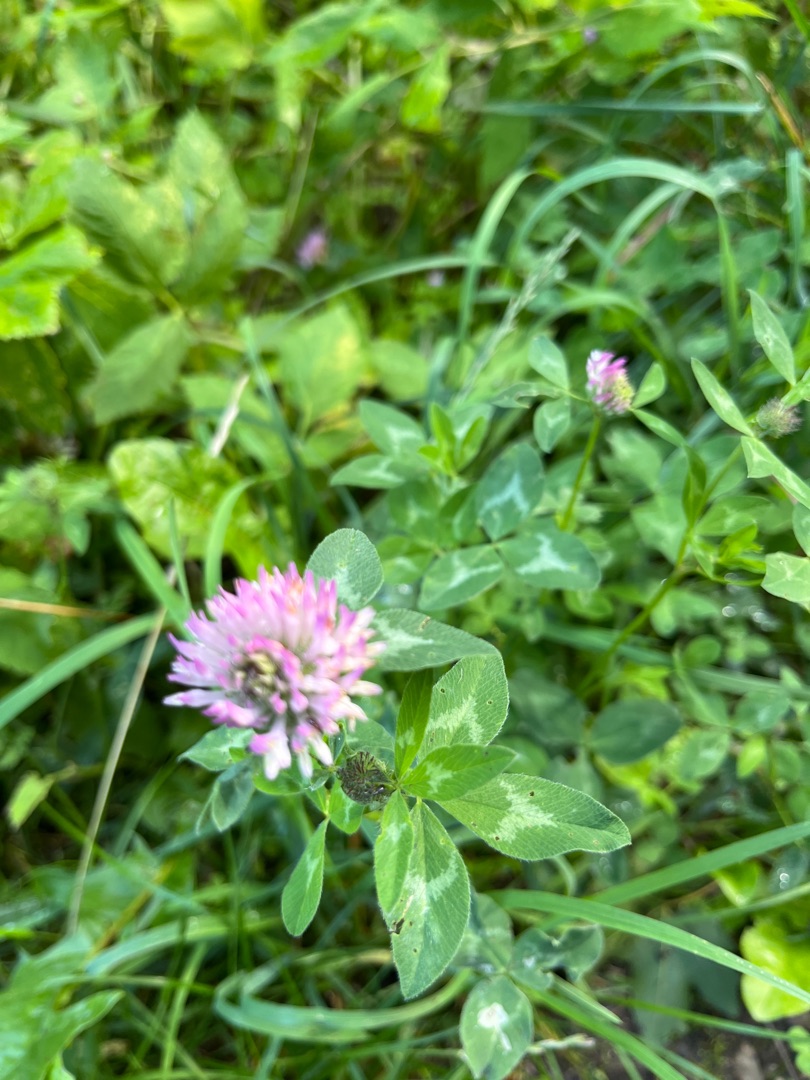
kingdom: Plantae
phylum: Tracheophyta
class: Magnoliopsida
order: Fabales
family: Fabaceae
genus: Trifolium
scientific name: Trifolium pratense
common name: Rød-kløver
